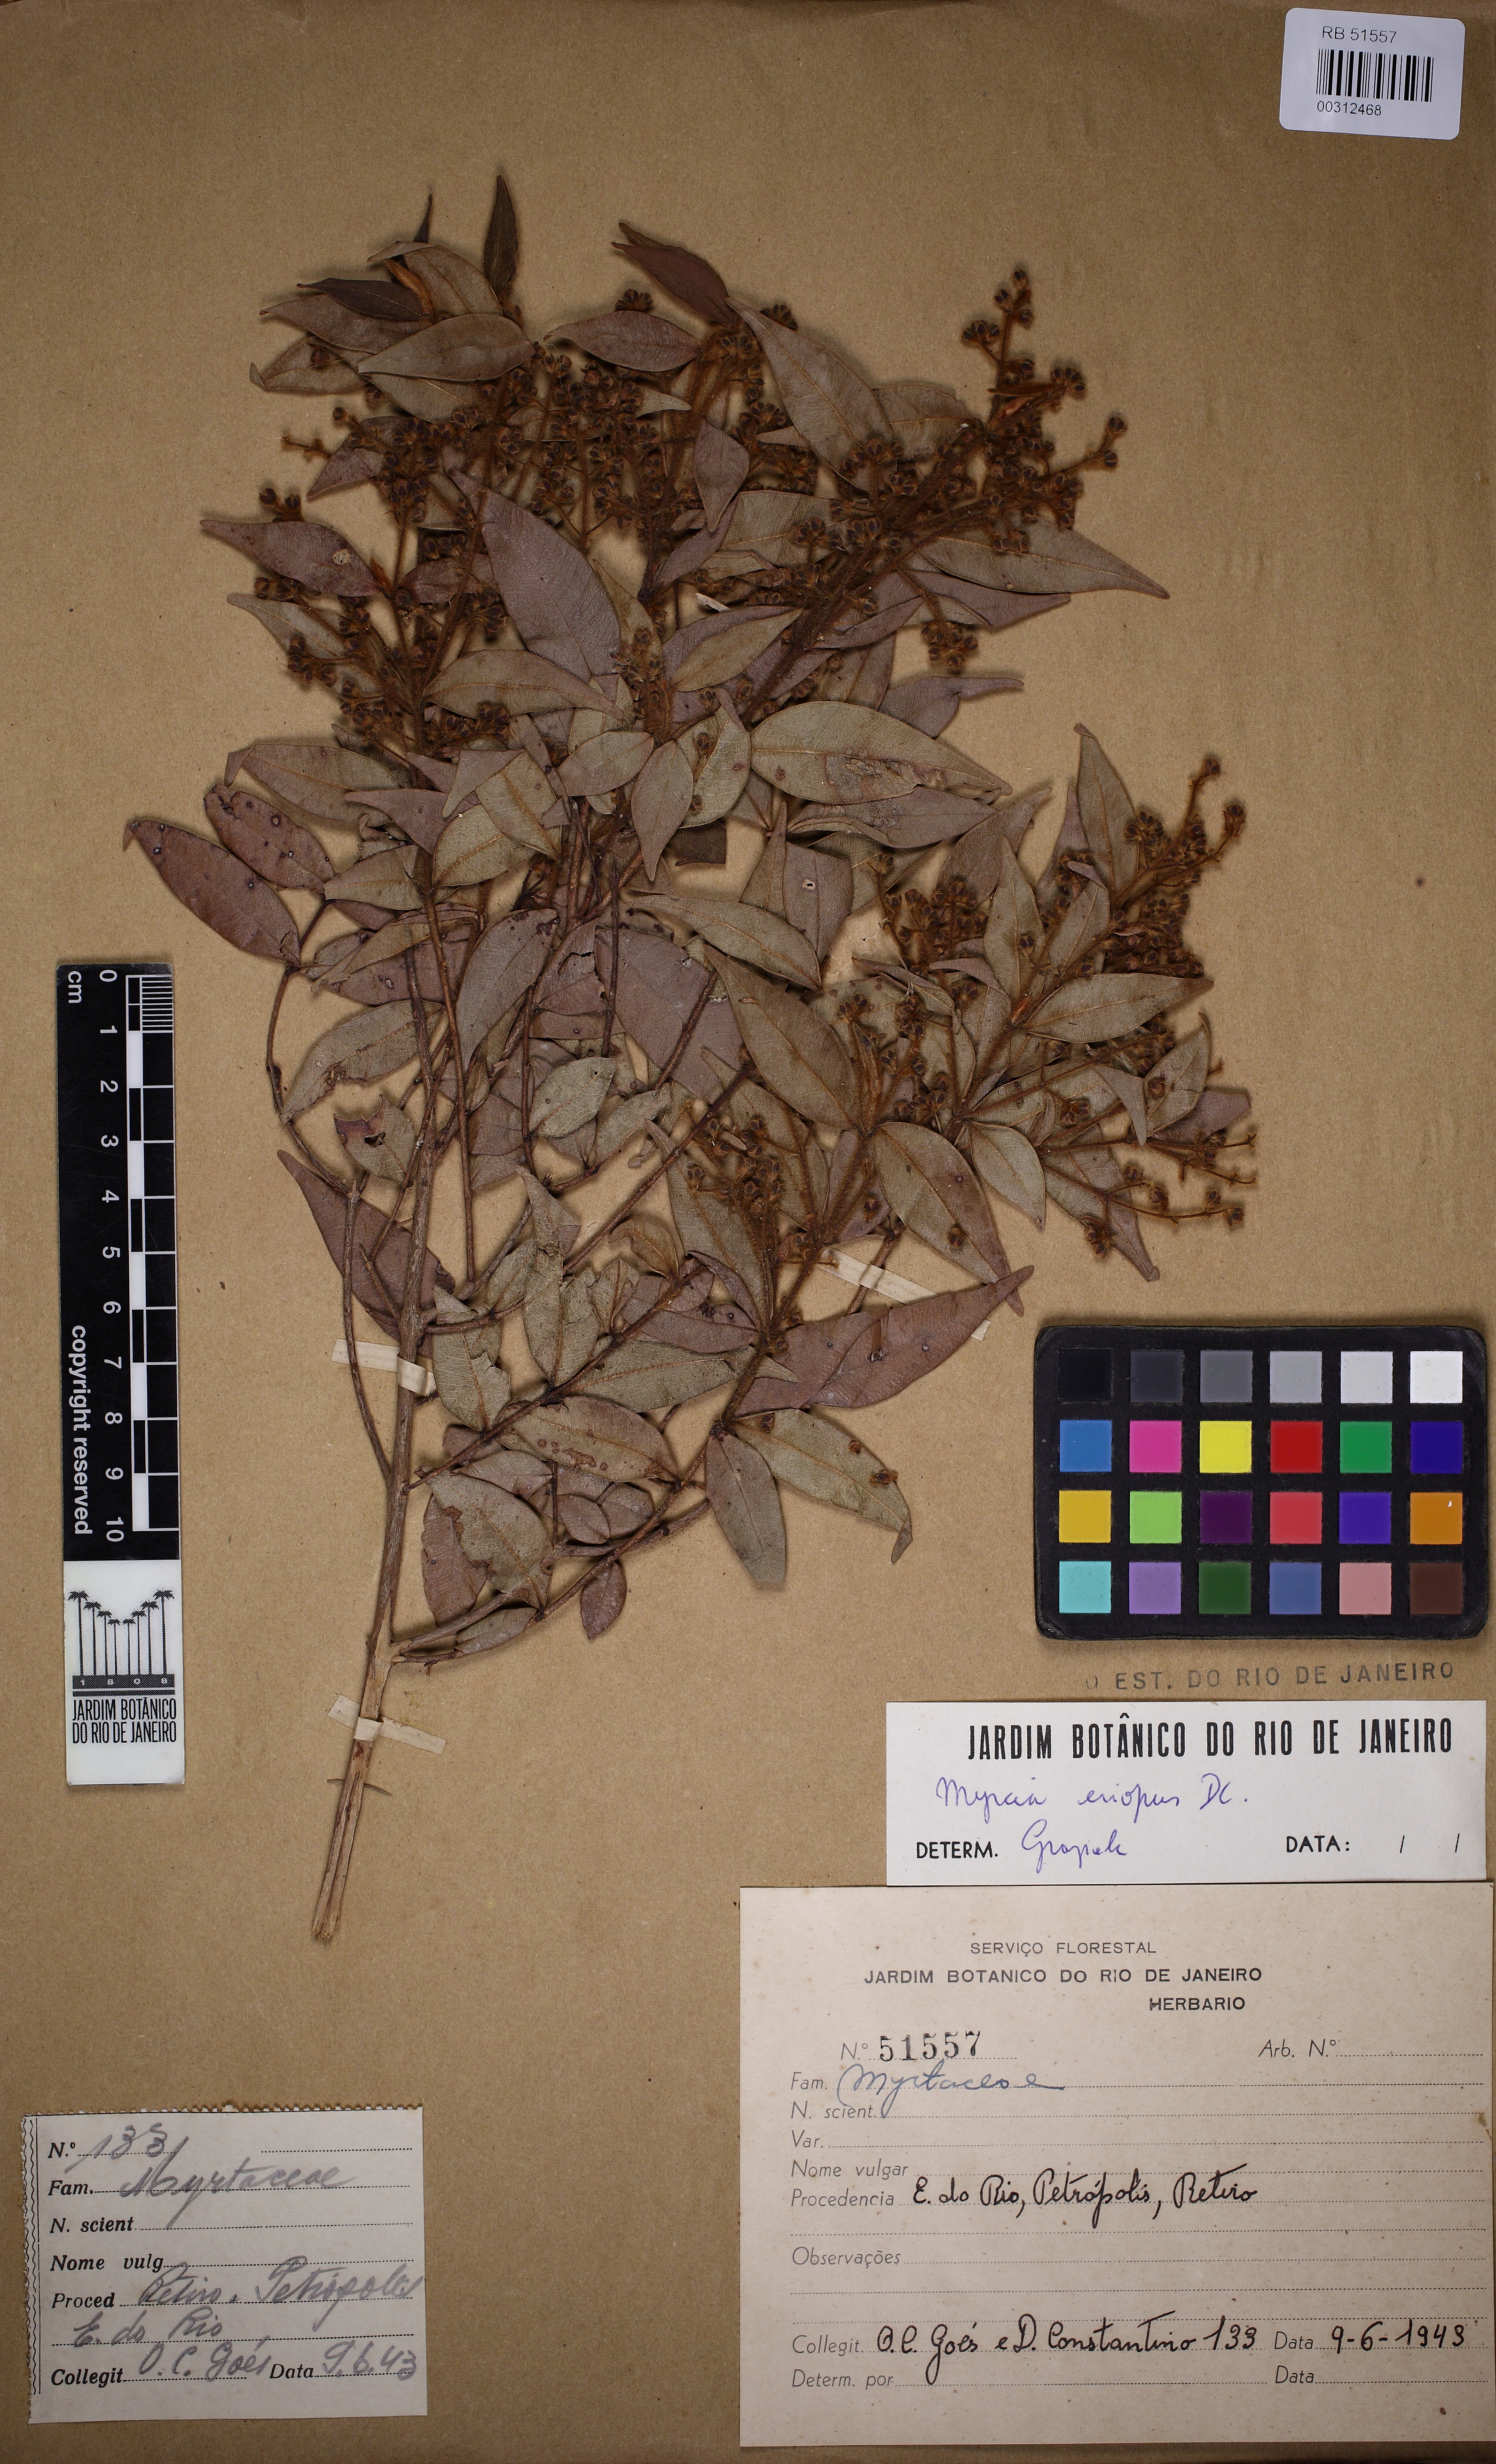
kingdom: Plantae
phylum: Tracheophyta
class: Magnoliopsida
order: Myrtales
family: Myrtaceae
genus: Myrcia
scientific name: Myrcia eriopus
